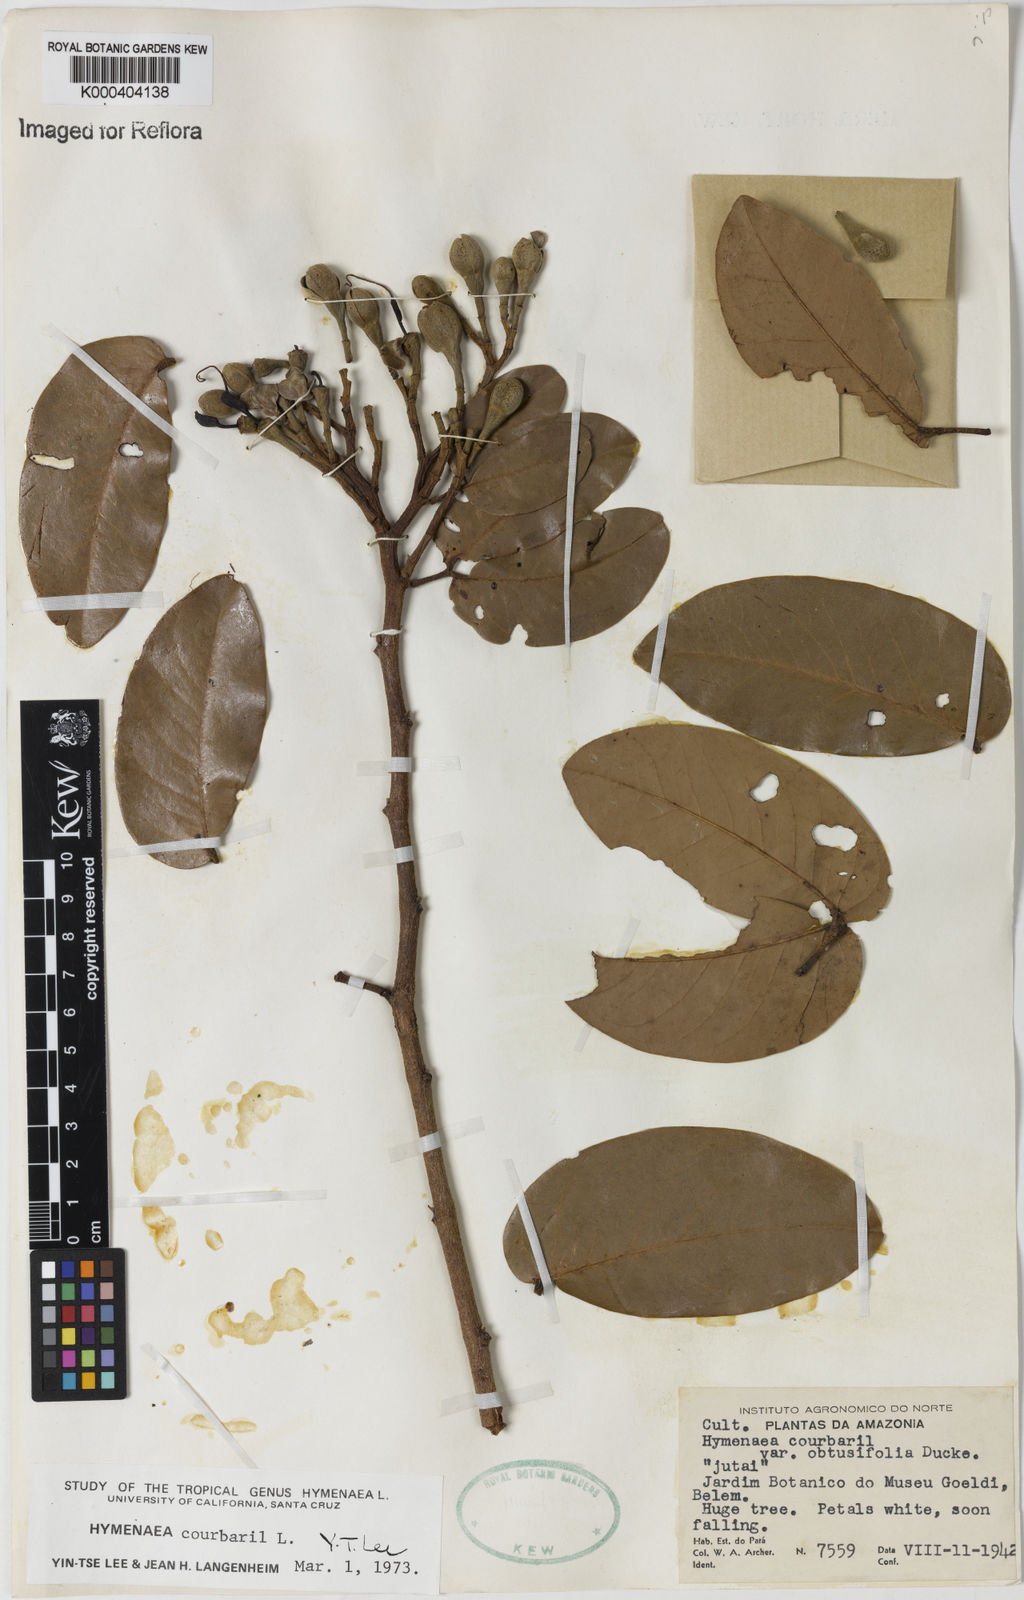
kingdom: Plantae
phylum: Tracheophyta
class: Magnoliopsida
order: Fabales
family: Fabaceae
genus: Hymenaea
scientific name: Hymenaea courbaril
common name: Brazilian copal
